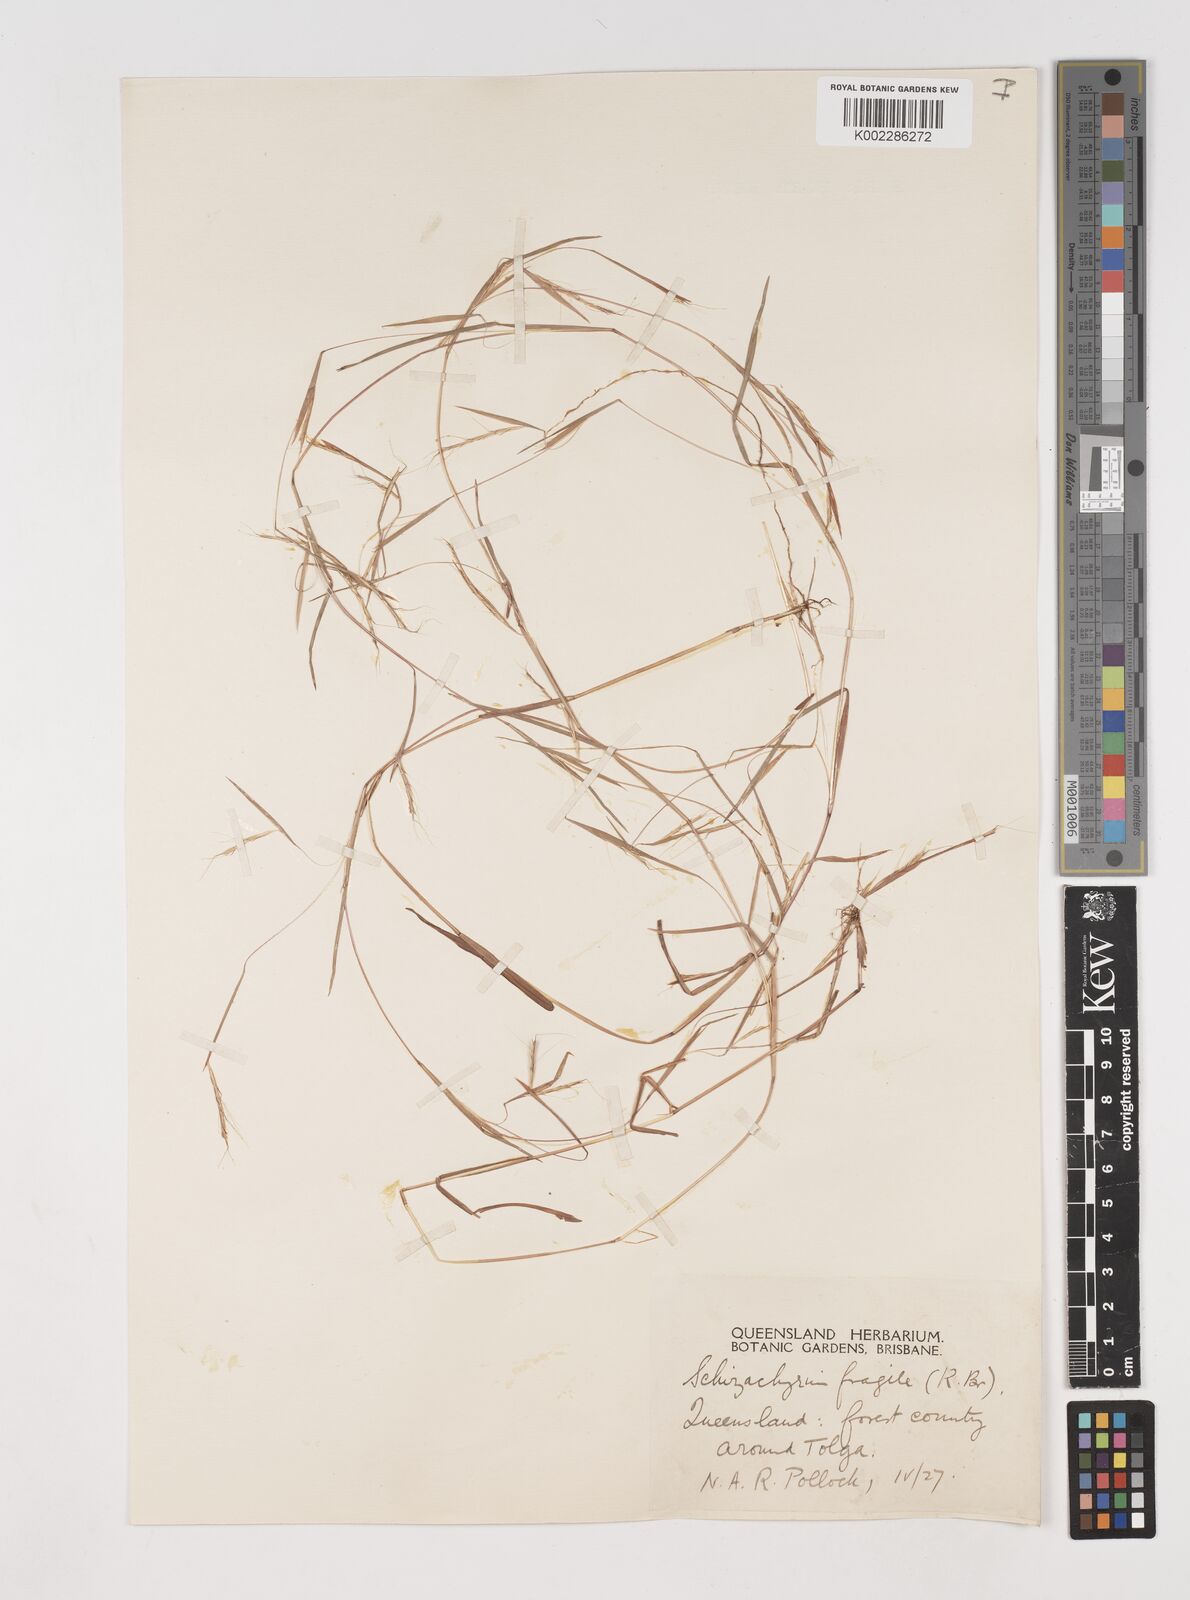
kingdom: Plantae
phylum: Tracheophyta
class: Liliopsida
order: Poales
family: Poaceae
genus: Schizachyrium
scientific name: Schizachyrium pseudeulalia
